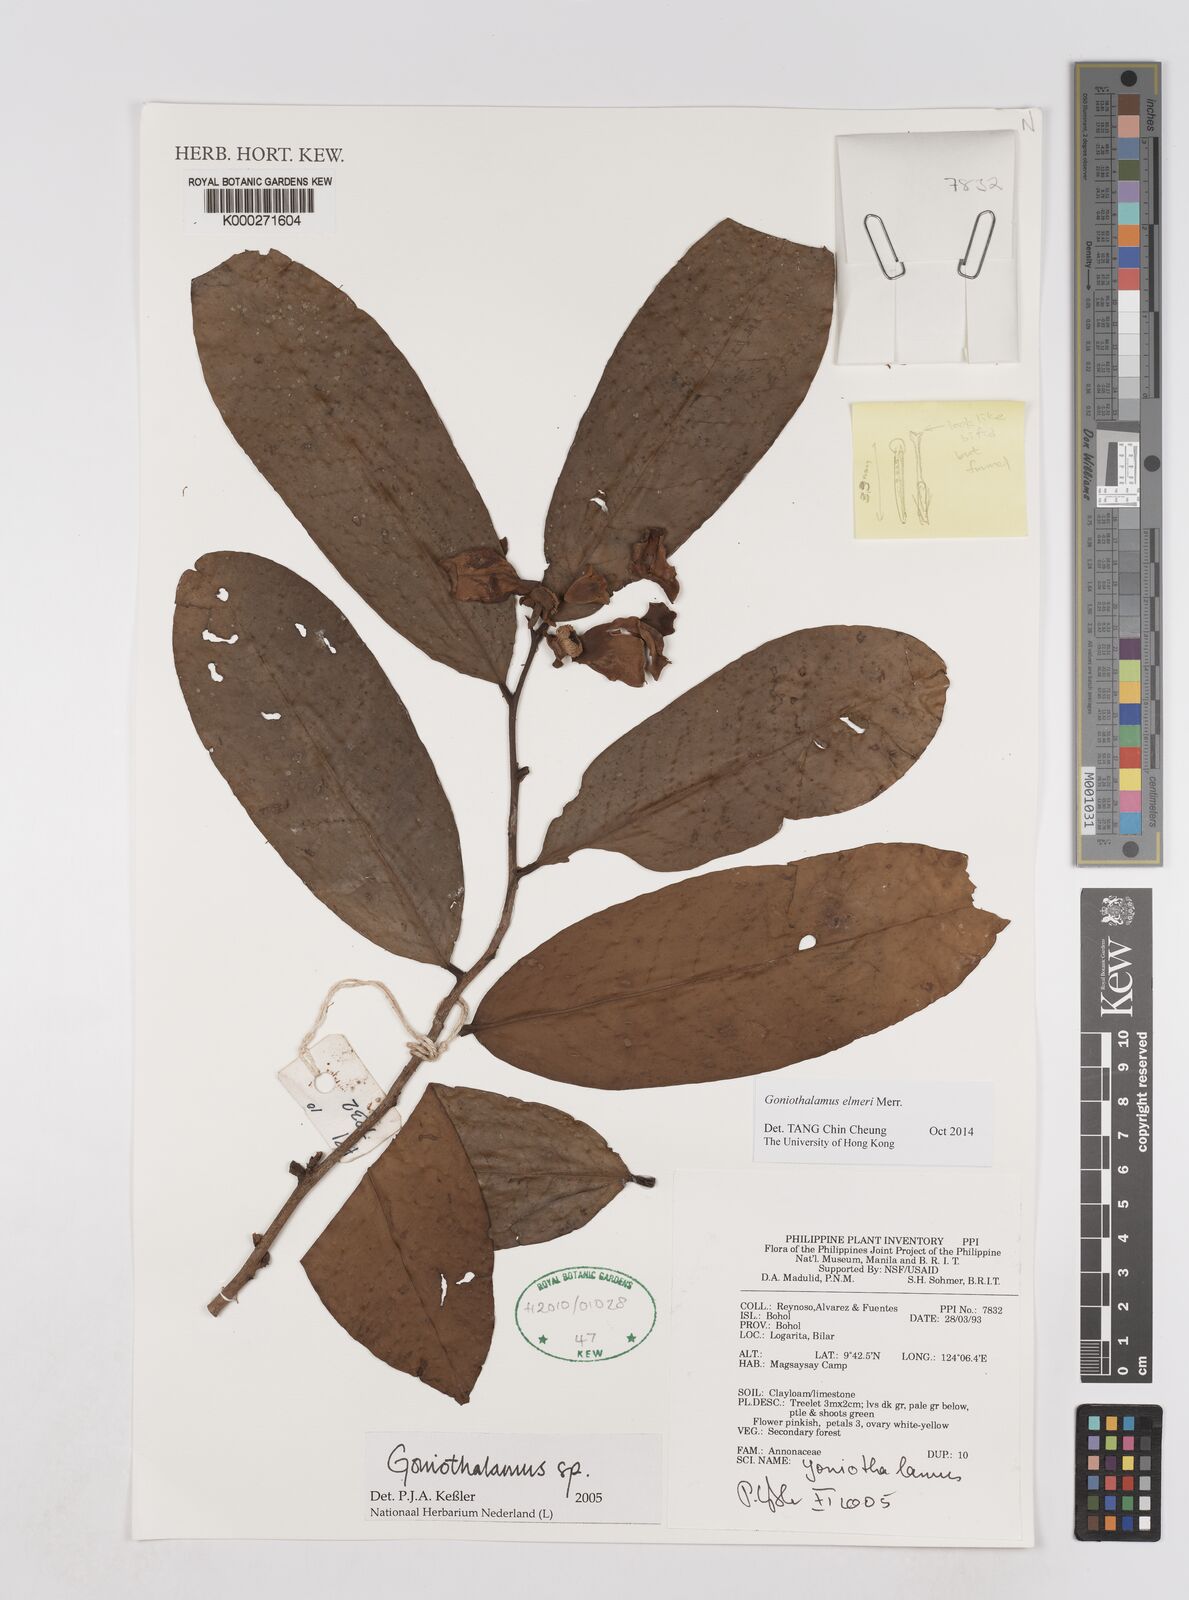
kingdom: Plantae
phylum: Tracheophyta
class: Magnoliopsida
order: Magnoliales
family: Annonaceae
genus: Goniothalamus
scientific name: Goniothalamus
